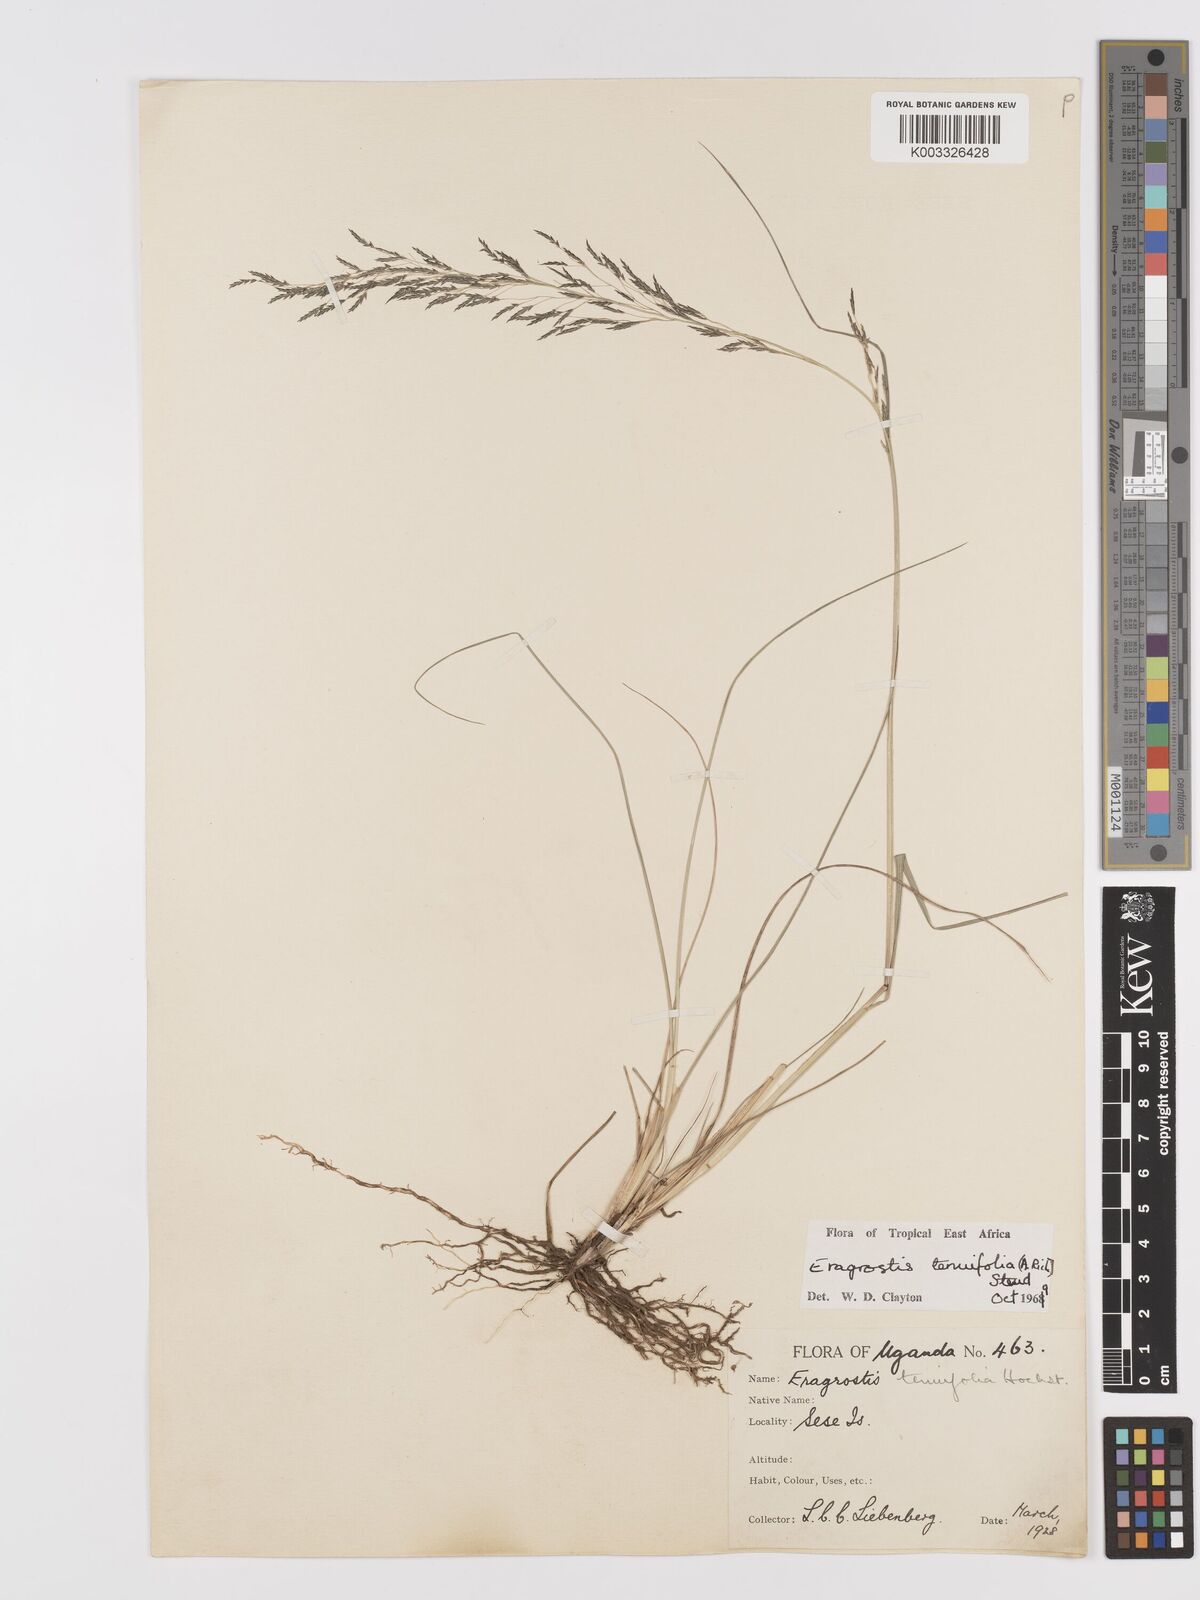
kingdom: Plantae
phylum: Tracheophyta
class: Liliopsida
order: Poales
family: Poaceae
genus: Eragrostis
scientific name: Eragrostis tenuifolia
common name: Elastic grass
